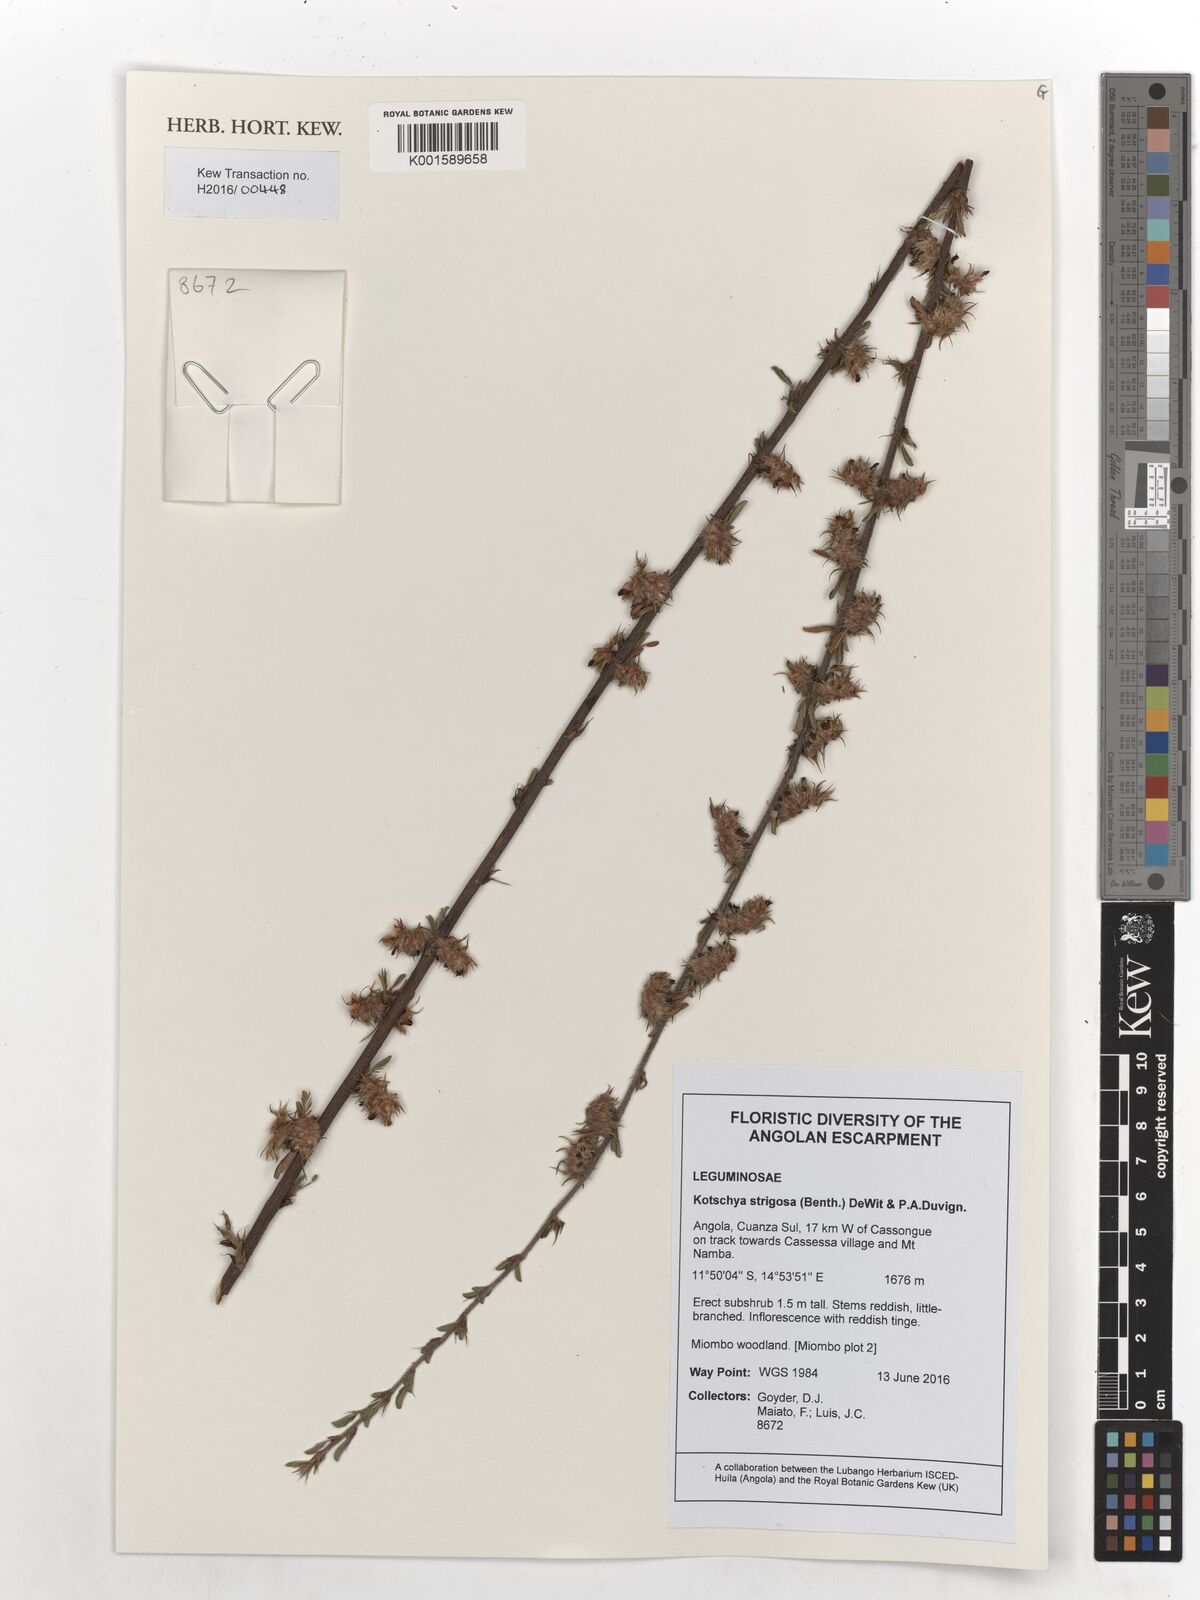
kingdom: Plantae
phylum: Tracheophyta
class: Magnoliopsida
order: Fabales
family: Fabaceae
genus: Kotschya
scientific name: Kotschya strigosa
